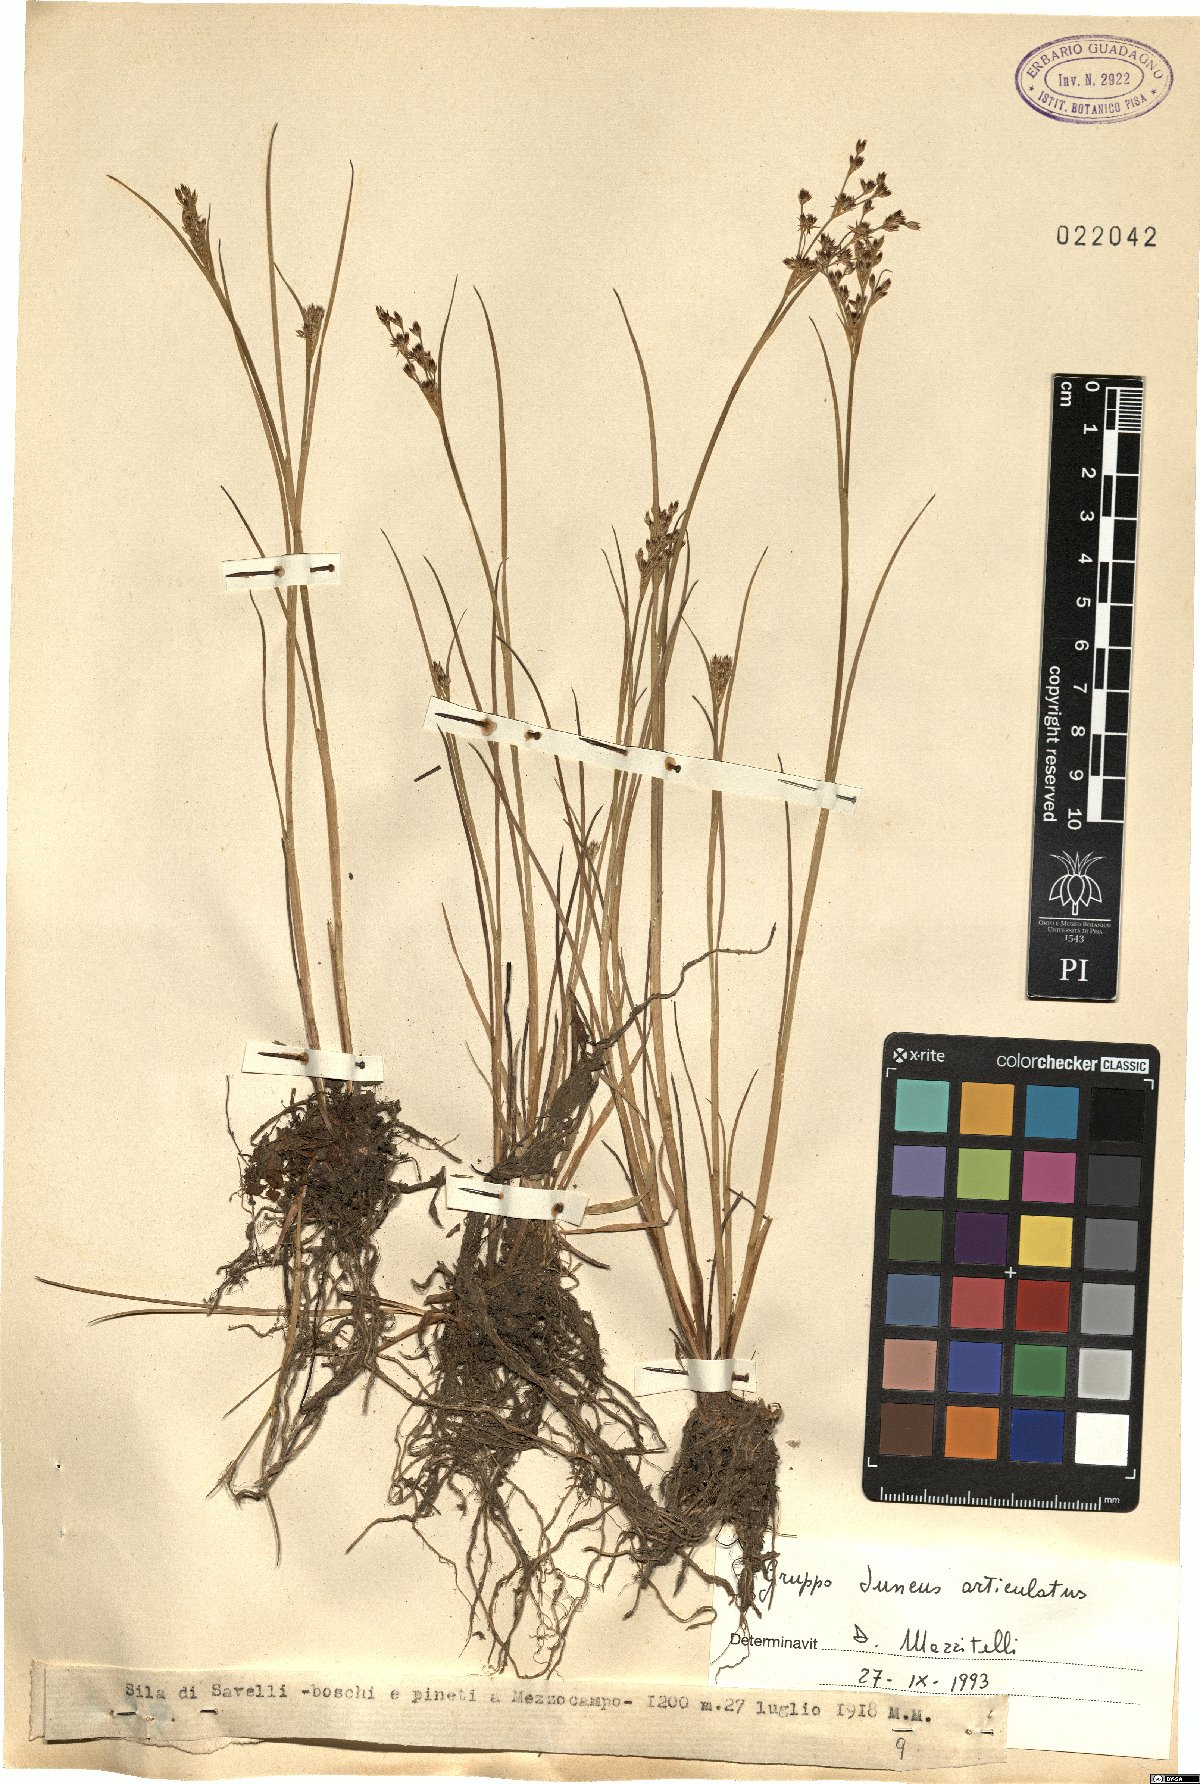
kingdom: Plantae
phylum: Tracheophyta
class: Liliopsida
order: Poales
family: Juncaceae
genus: Juncus
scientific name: Juncus articulatus
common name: Jointed rush
